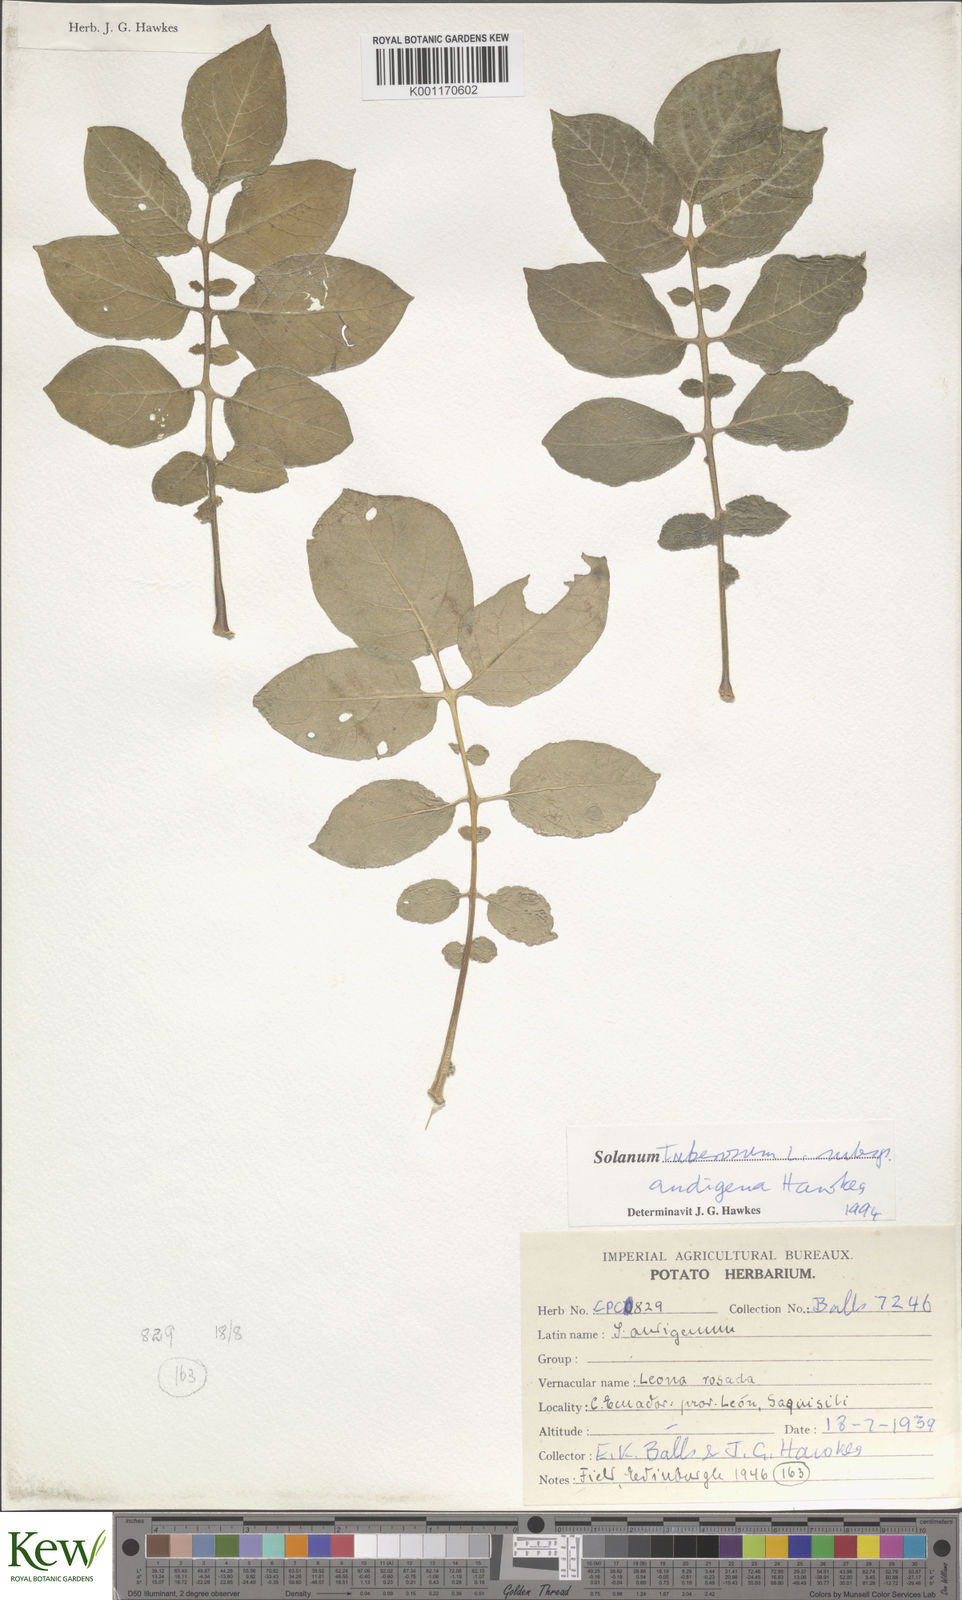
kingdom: Plantae
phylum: Tracheophyta
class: Magnoliopsida
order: Solanales
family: Solanaceae
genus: Solanum
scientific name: Solanum tuberosum
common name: Potato
